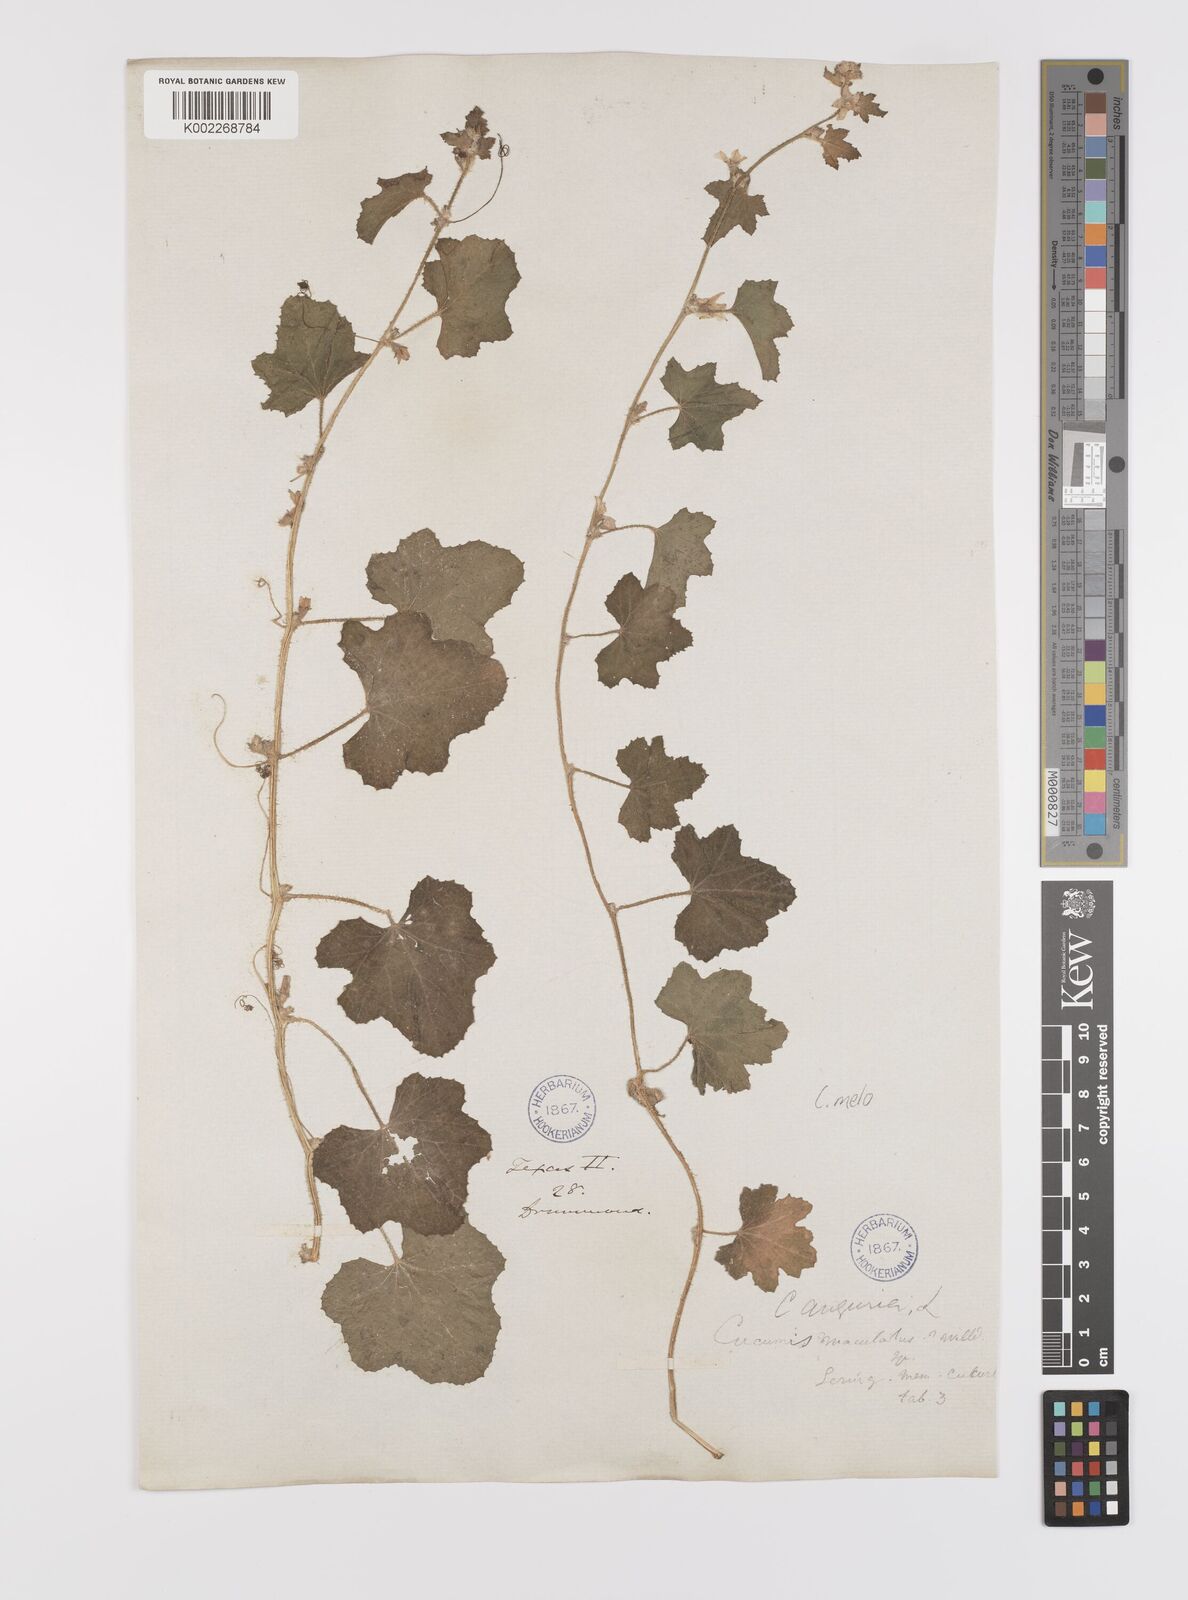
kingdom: Plantae
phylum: Tracheophyta
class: Magnoliopsida
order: Cucurbitales
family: Cucurbitaceae
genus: Cucumis
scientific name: Cucumis melo
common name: Melon
